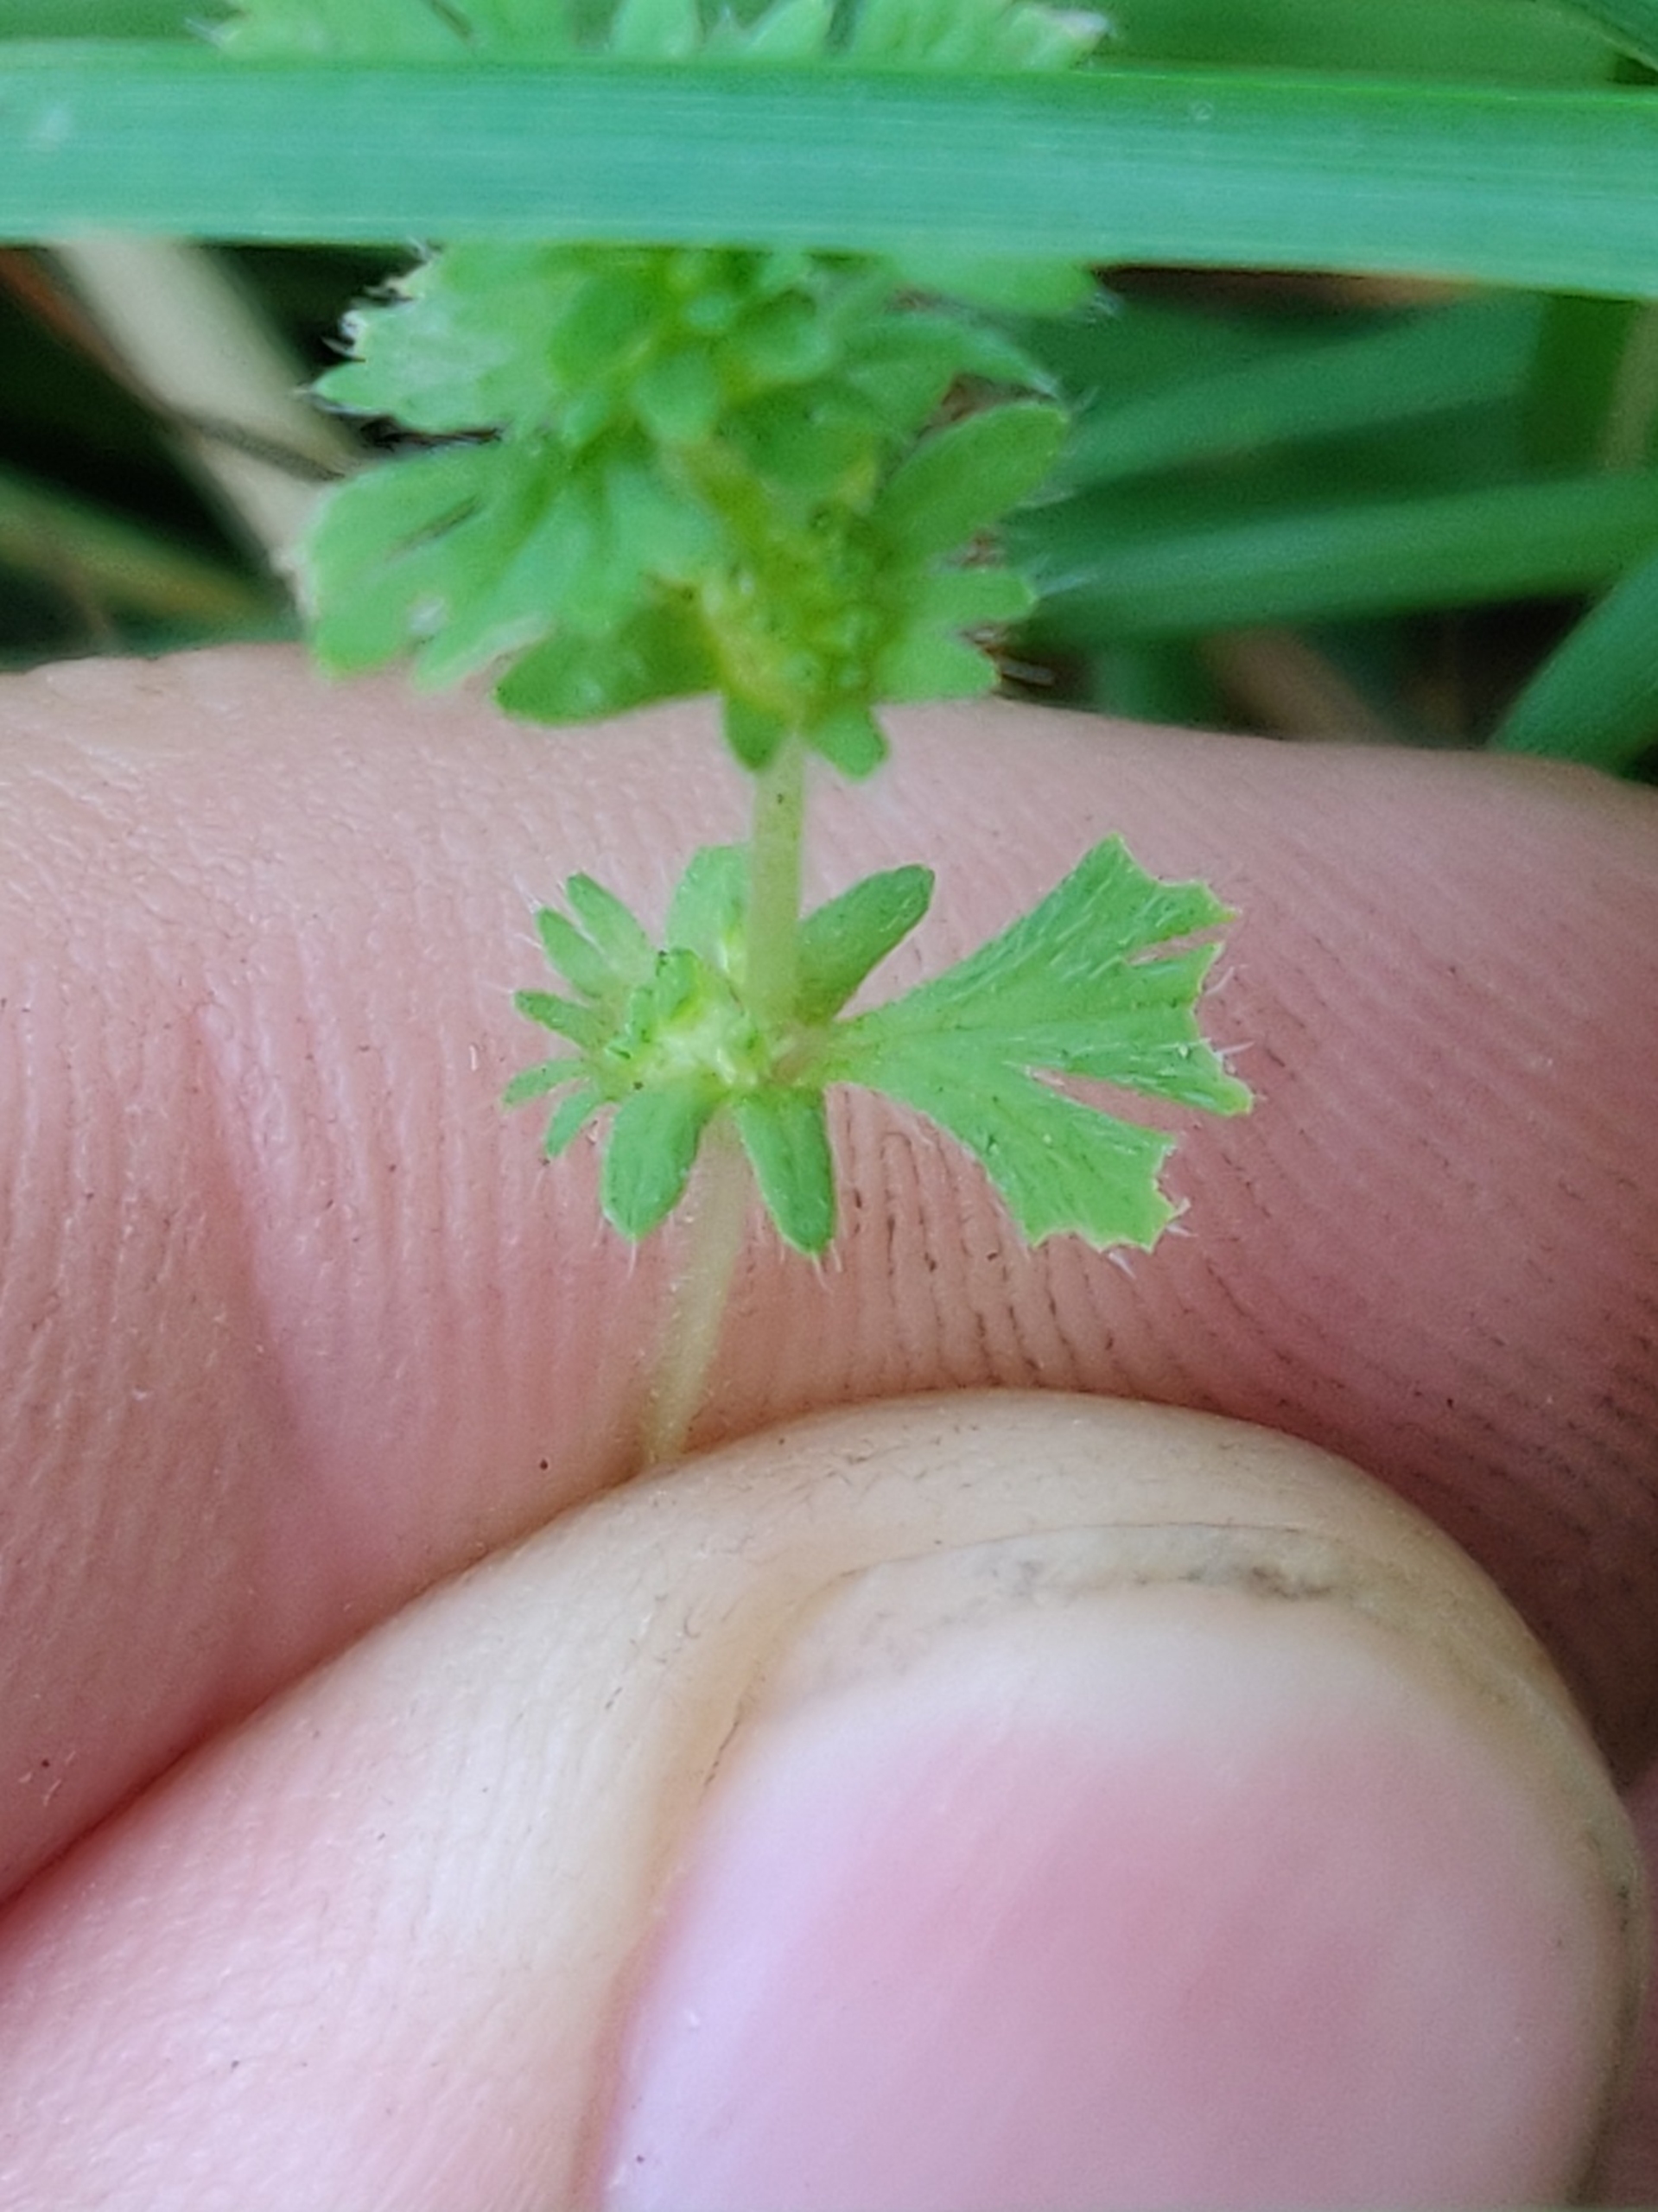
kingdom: Plantae
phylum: Tracheophyta
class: Magnoliopsida
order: Rosales
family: Rosaceae
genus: Aphanes
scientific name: Aphanes microcarpa
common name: Småfrugtet dværgløvefod
